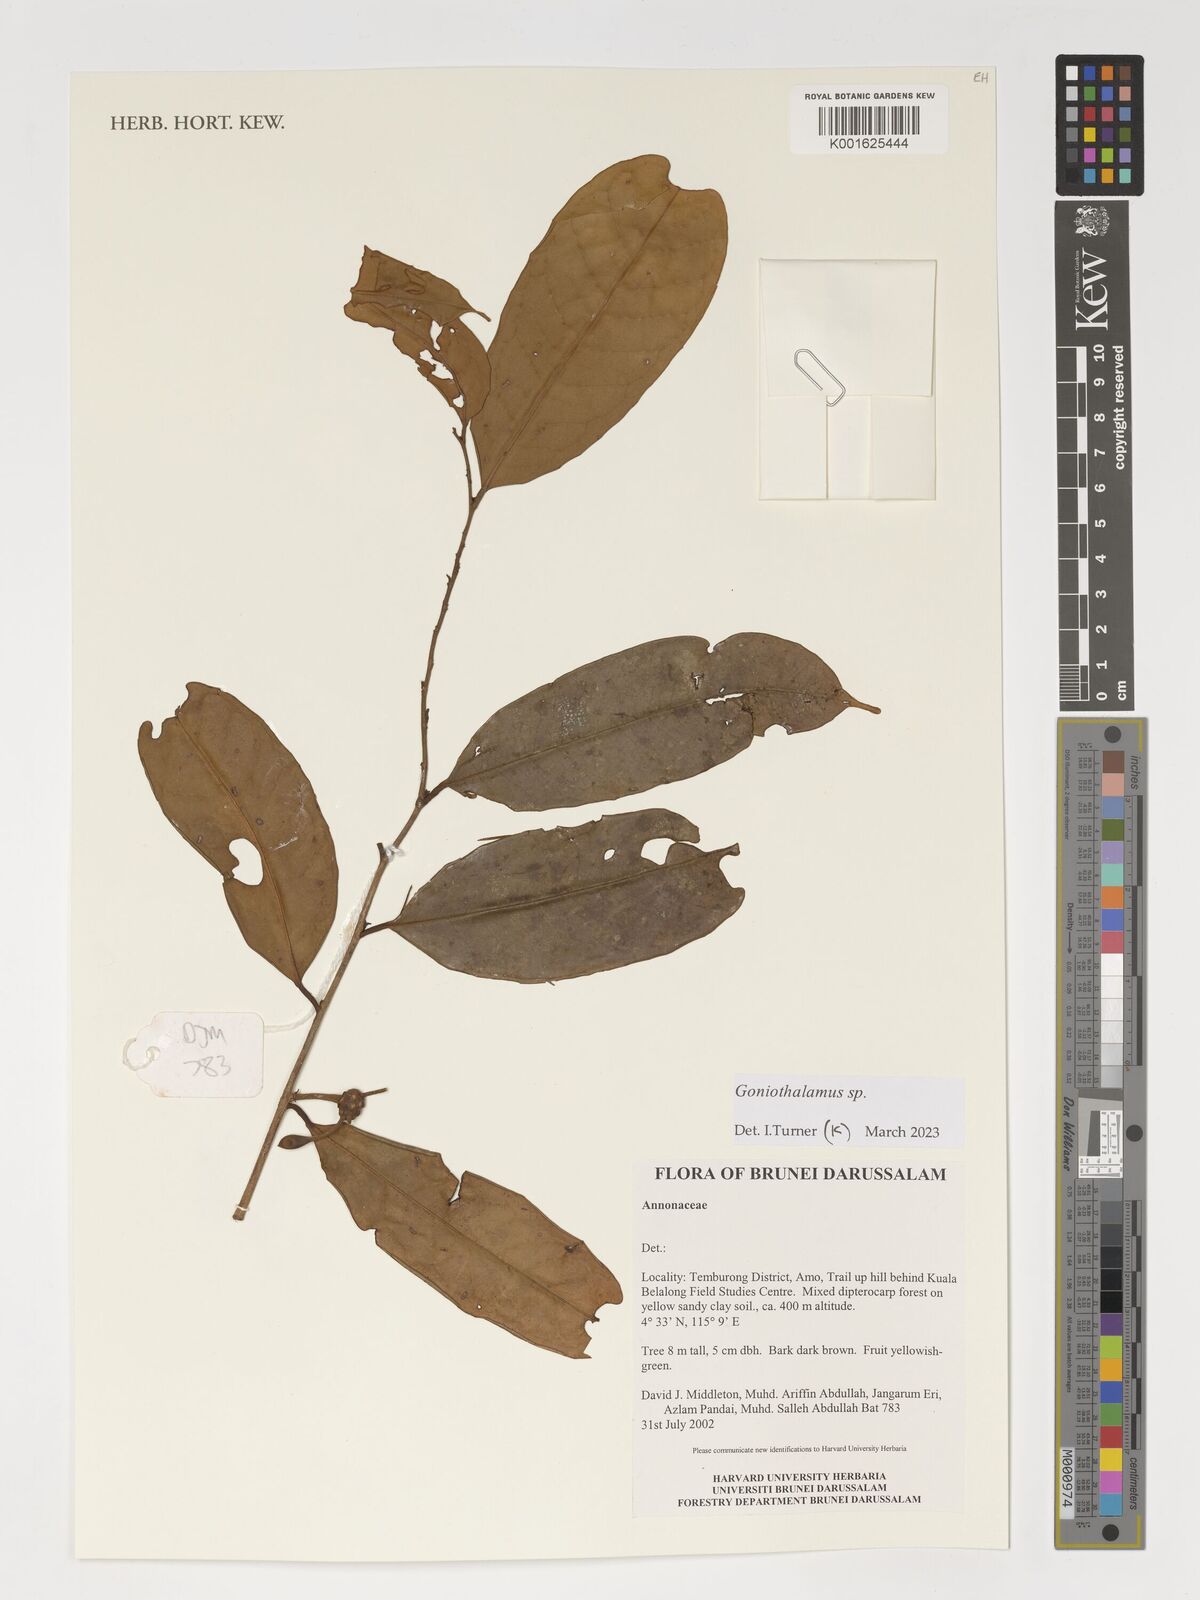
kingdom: Plantae
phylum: Tracheophyta
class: Magnoliopsida
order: Magnoliales
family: Annonaceae
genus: Goniothalamus
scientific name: Goniothalamus
